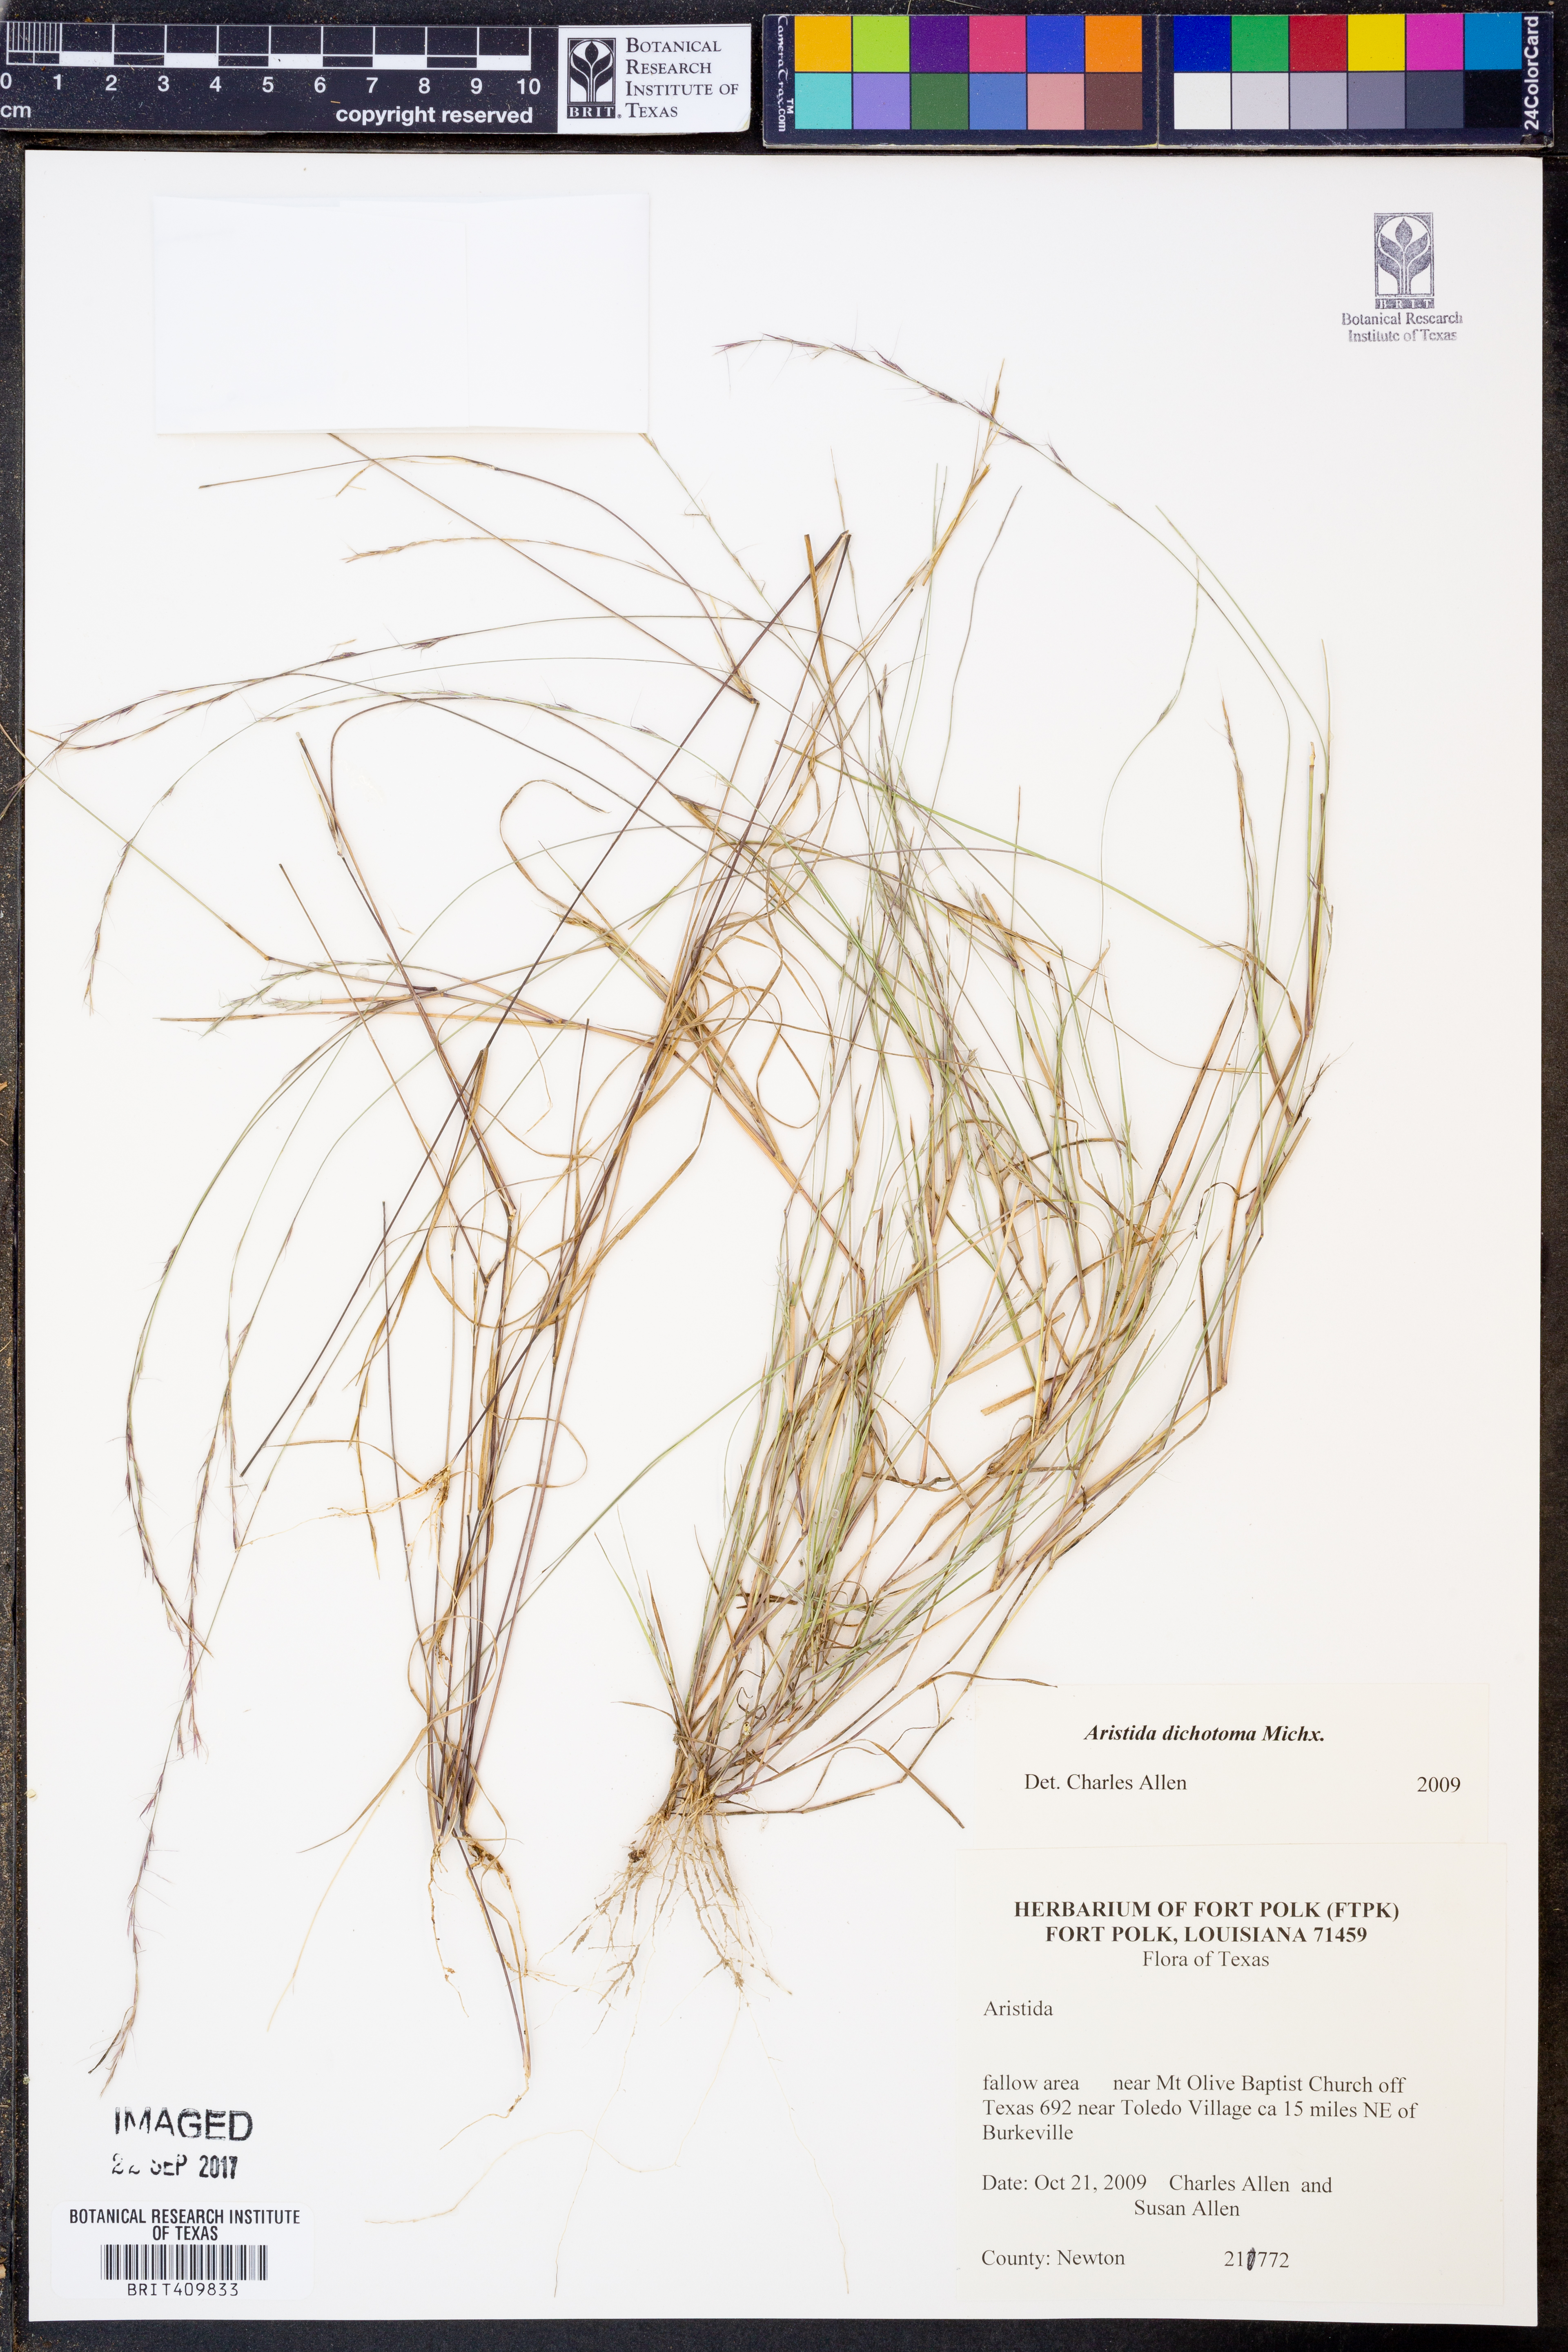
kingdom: Plantae
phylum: Tracheophyta
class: Liliopsida
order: Poales
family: Poaceae
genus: Aristida
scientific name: Aristida dichotoma
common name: Churchmouse three-awn
